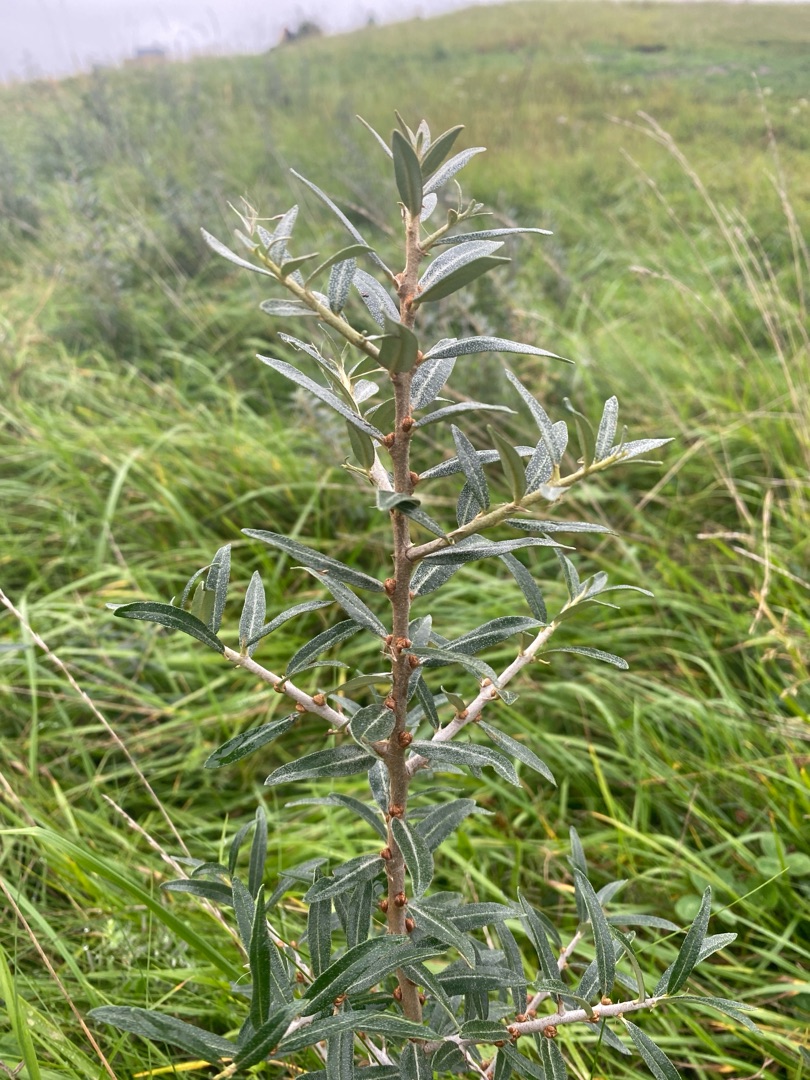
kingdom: Plantae
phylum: Tracheophyta
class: Magnoliopsida
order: Rosales
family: Elaeagnaceae
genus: Hippophae
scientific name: Hippophae rhamnoides
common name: Havtorn
